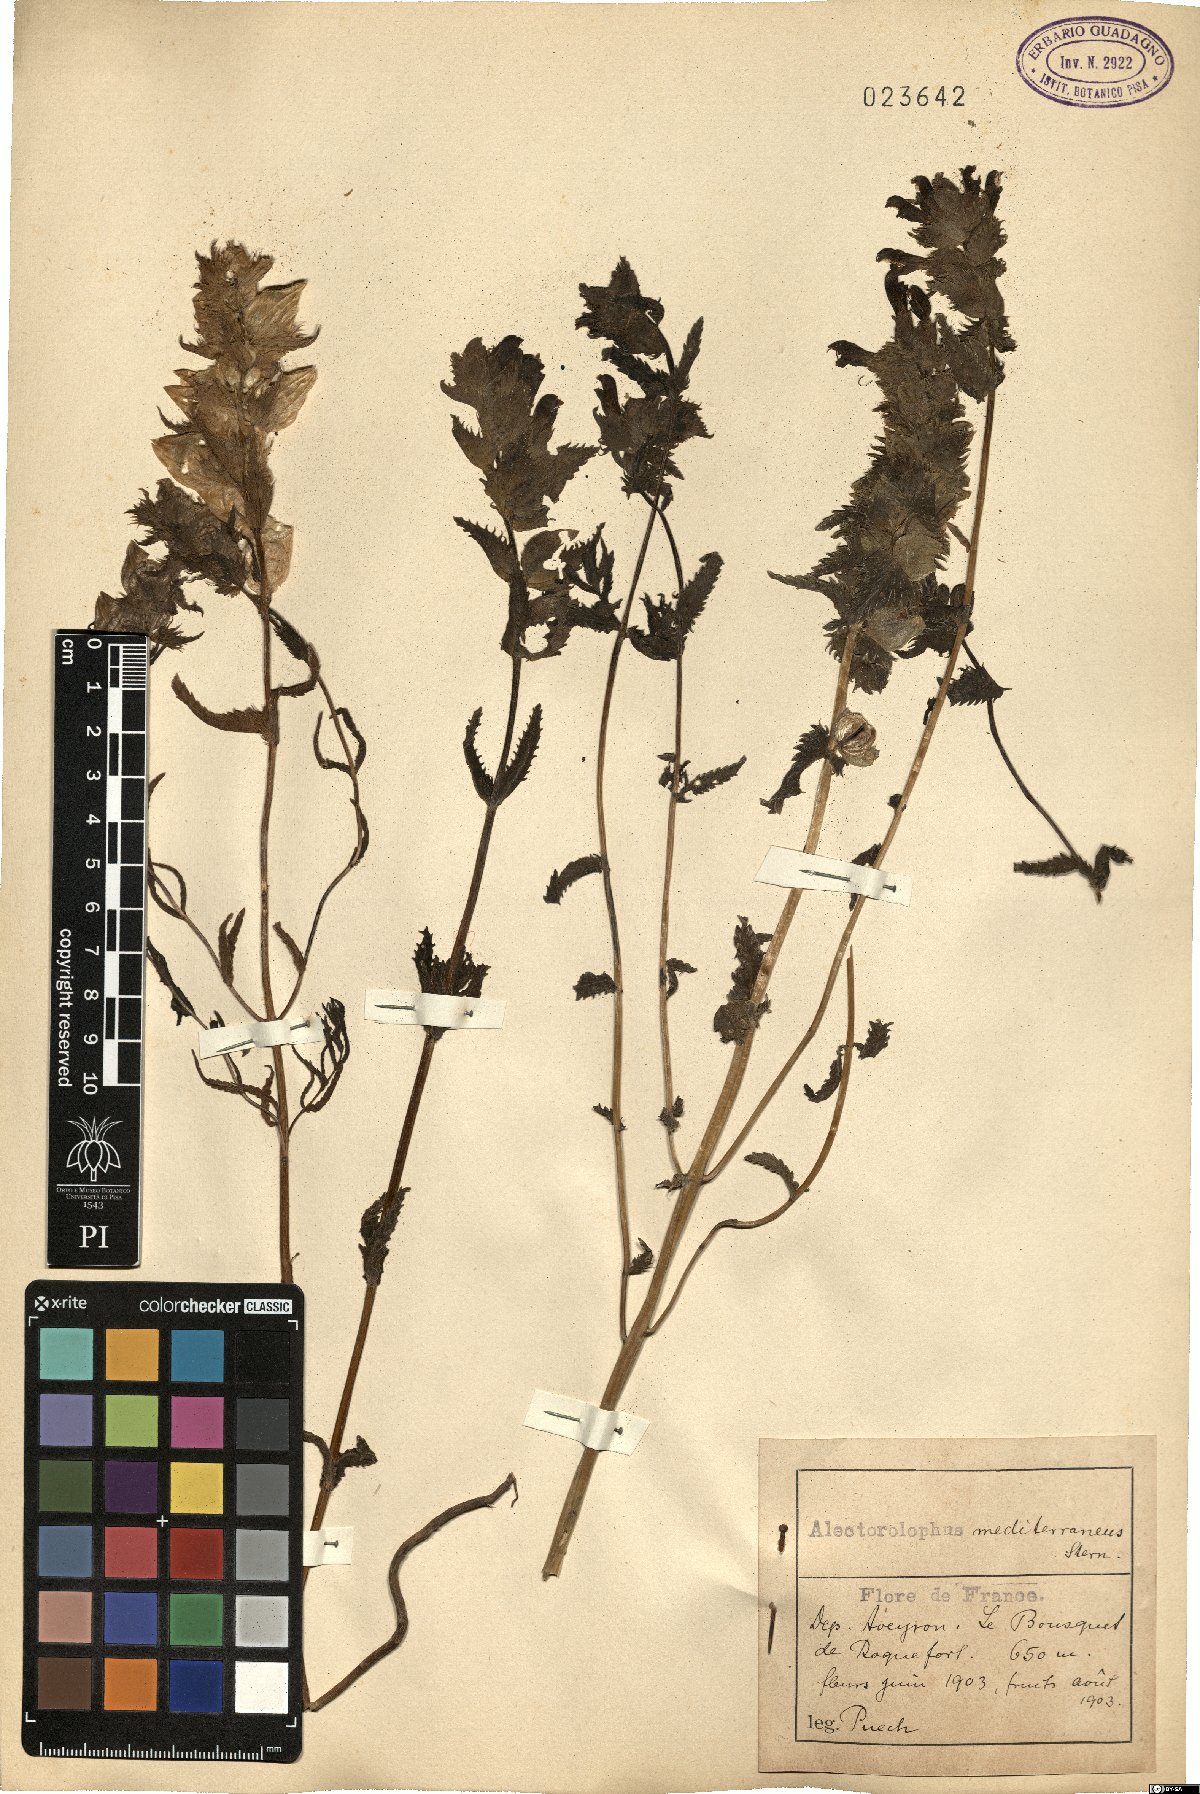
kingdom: Plantae
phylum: Tracheophyta
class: Magnoliopsida
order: Lamiales
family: Orobanchaceae
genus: Rhinanthus
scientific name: Rhinanthus pumilus
